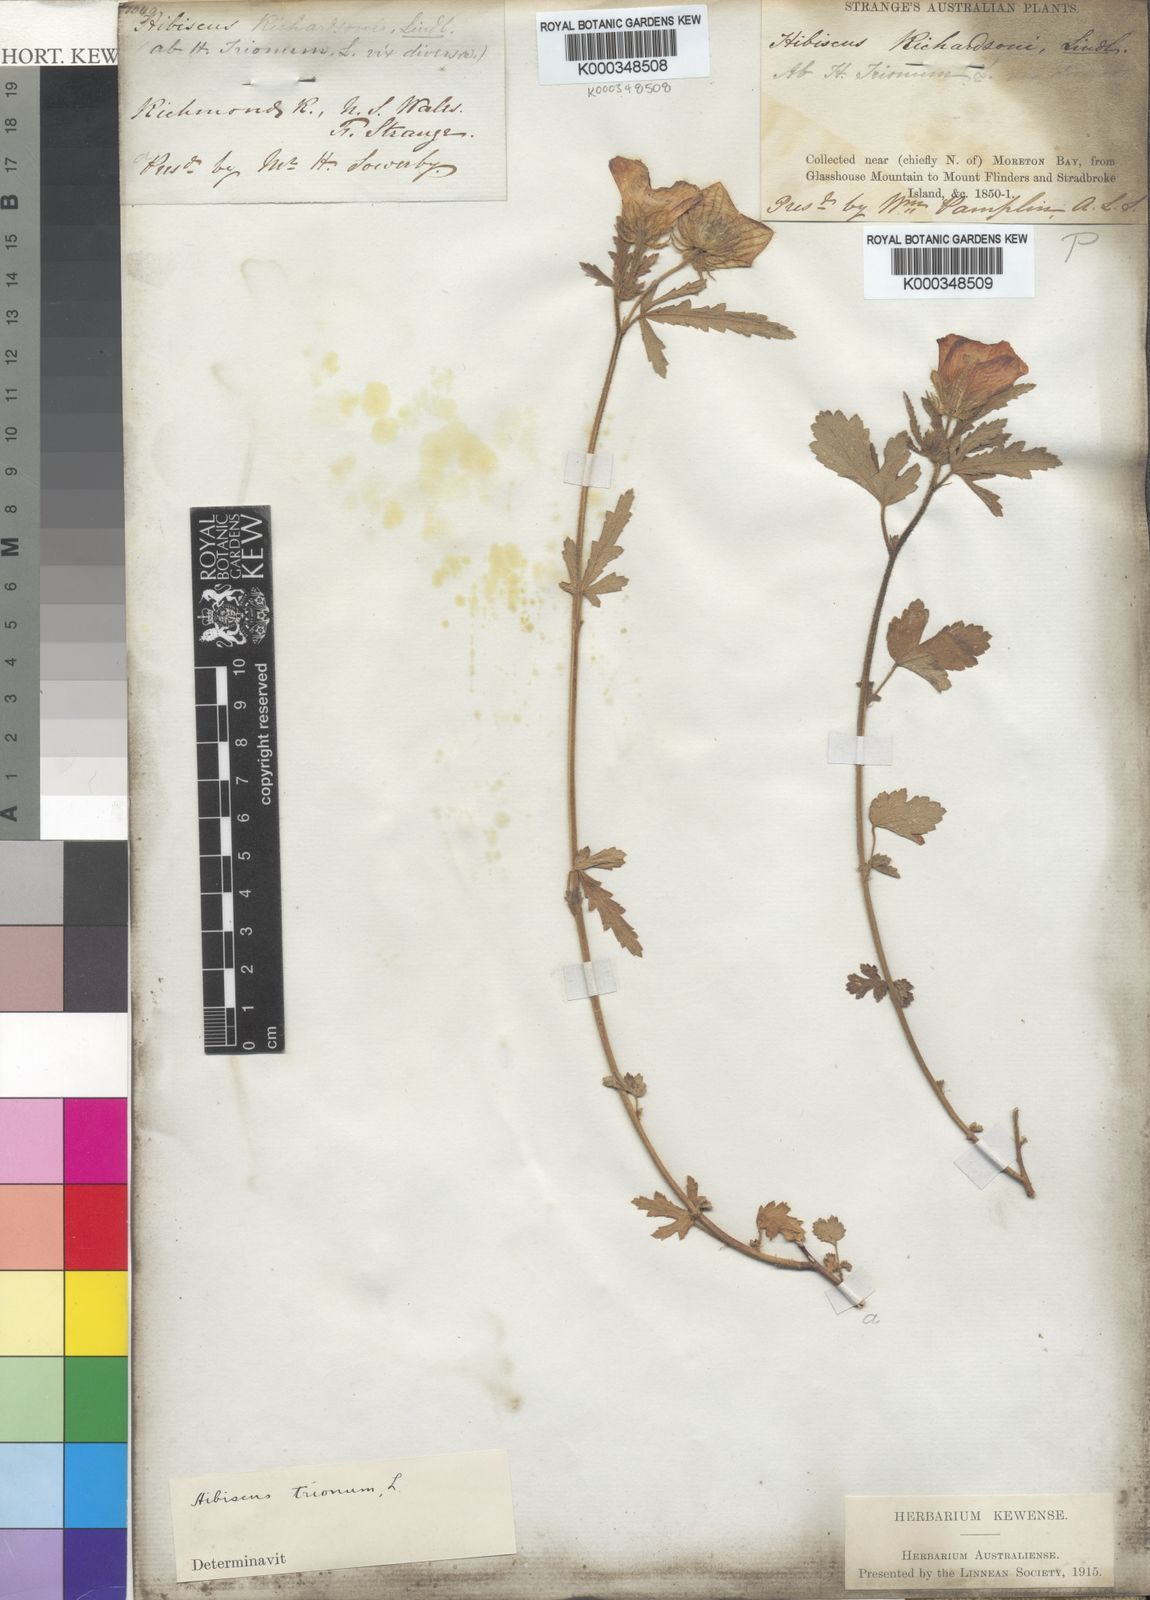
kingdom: Plantae
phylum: Tracheophyta
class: Magnoliopsida
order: Malvales
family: Malvaceae
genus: Hibiscus
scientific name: Hibiscus trionum
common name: Bladder ketmia
